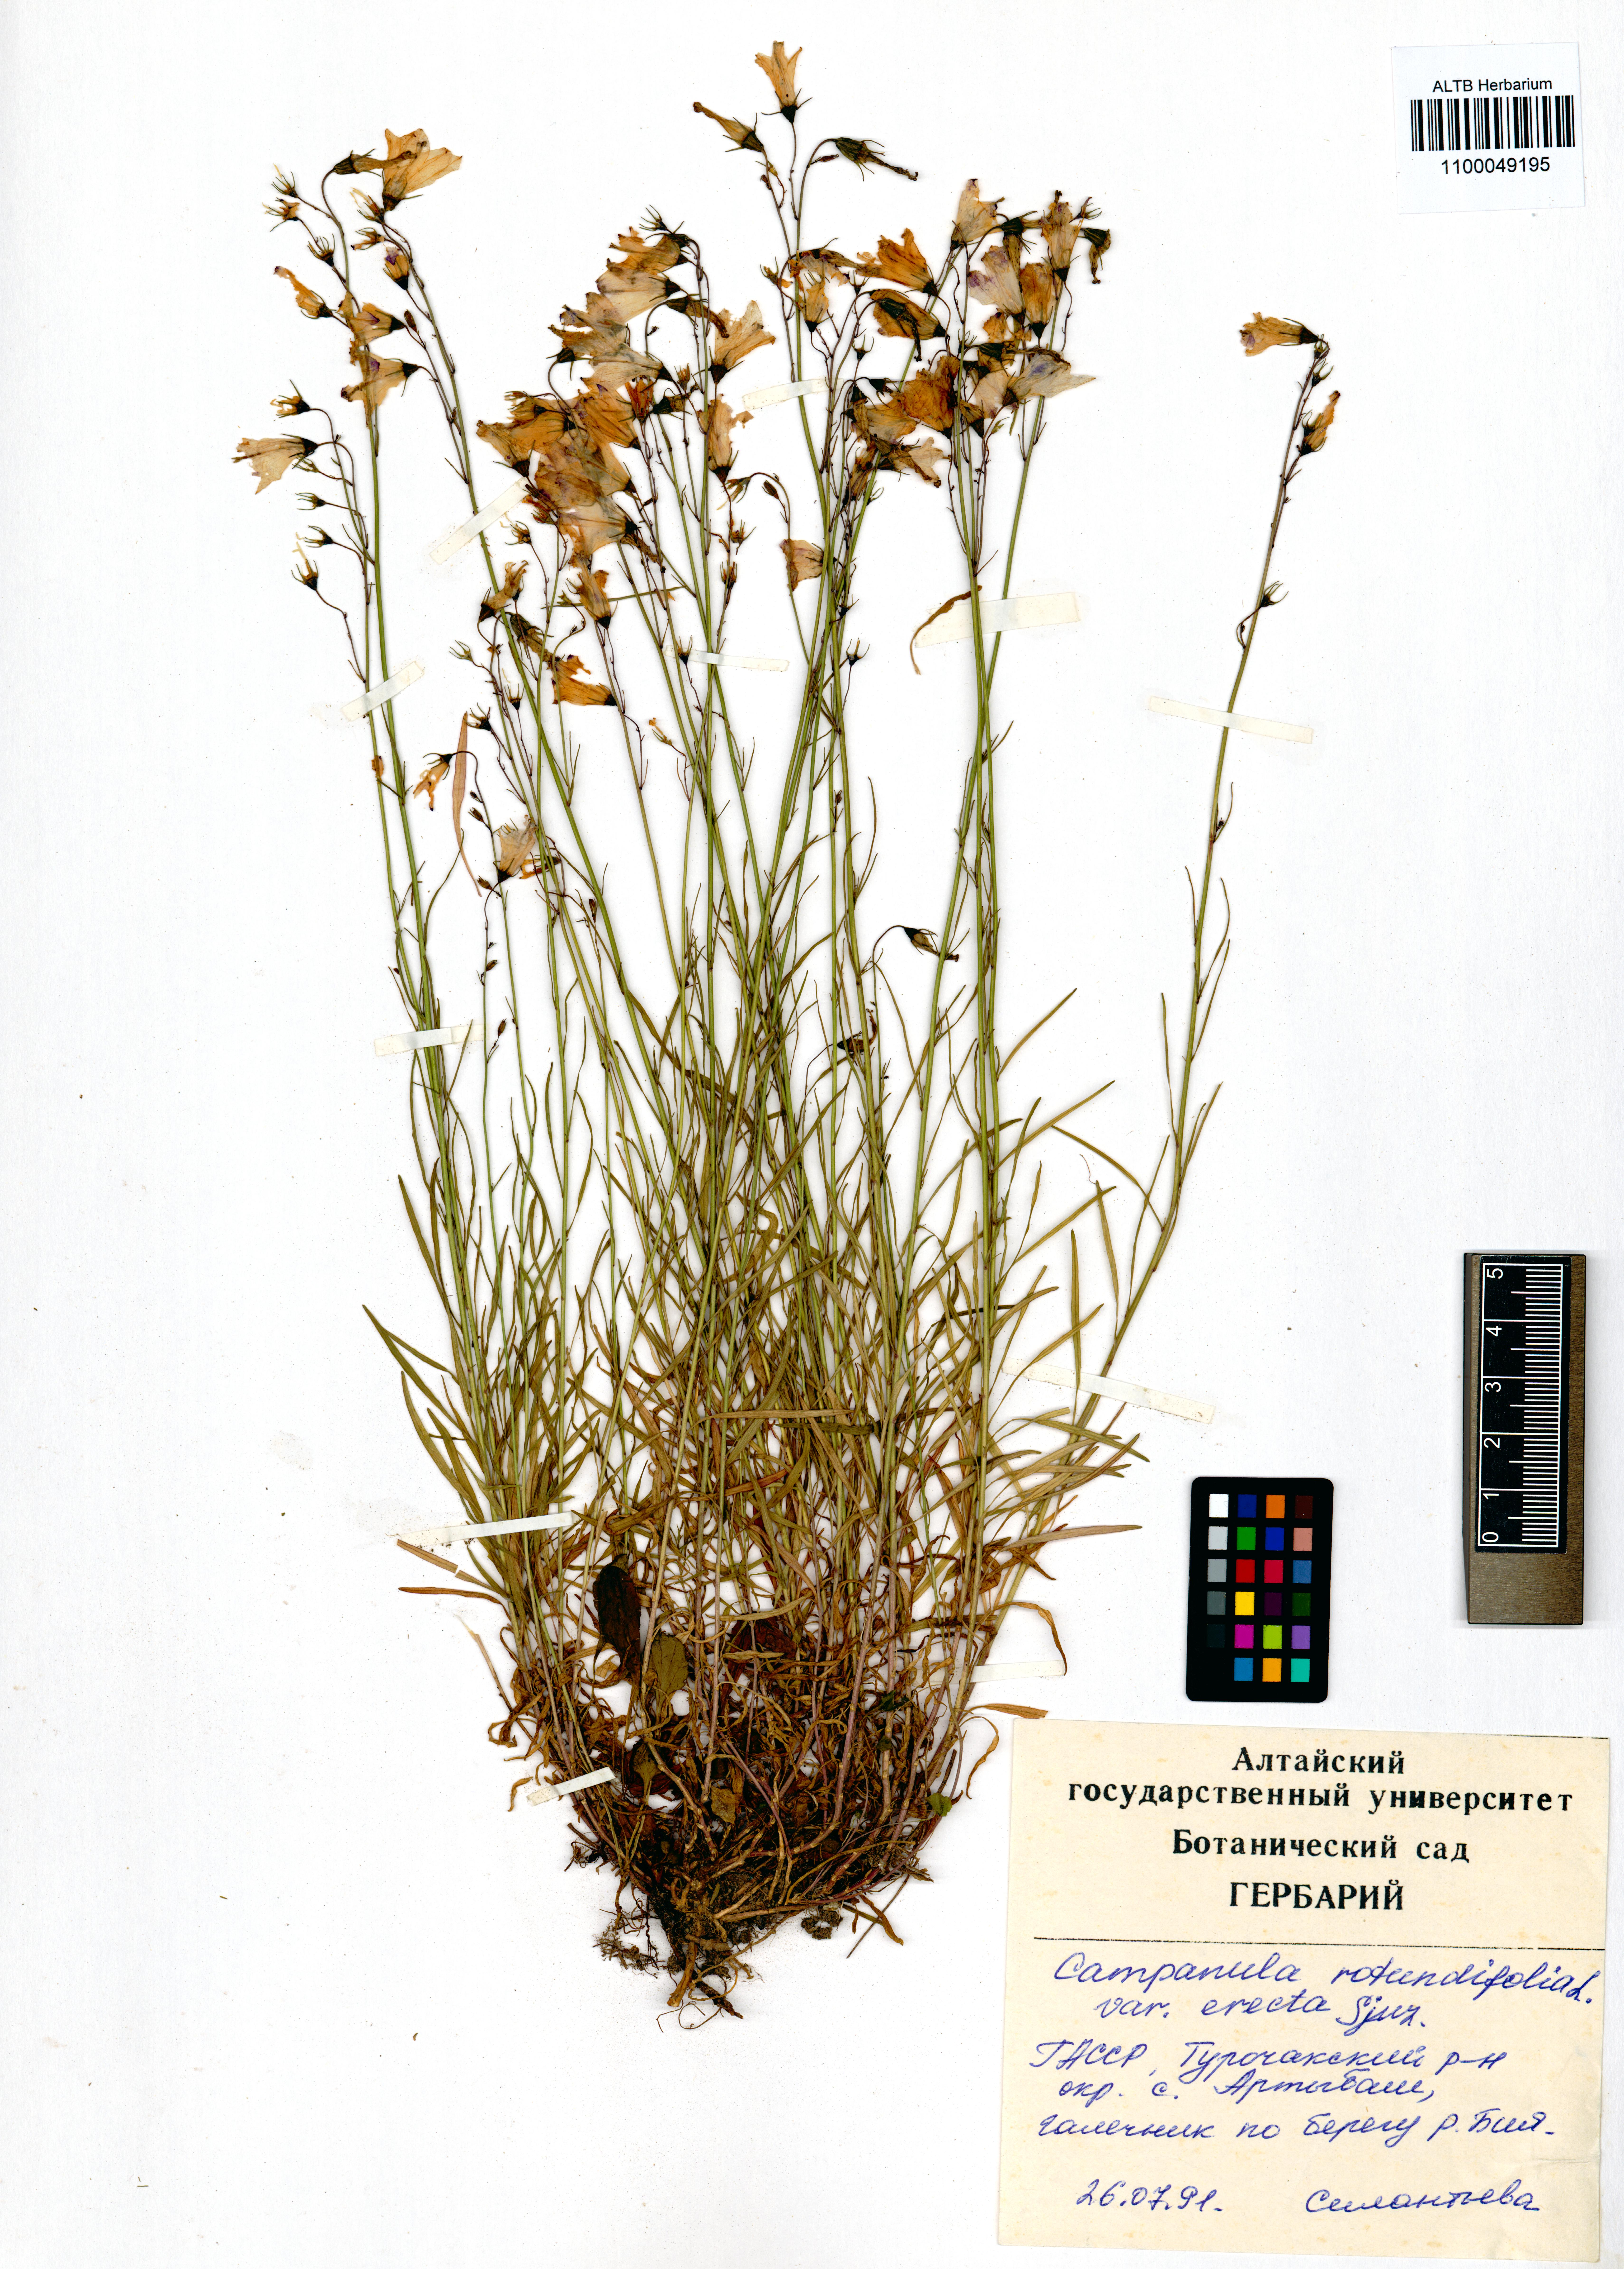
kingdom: Plantae
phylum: Tracheophyta
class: Magnoliopsida
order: Asterales
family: Campanulaceae
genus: Campanula
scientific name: Campanula rotundifolia
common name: Harebell
